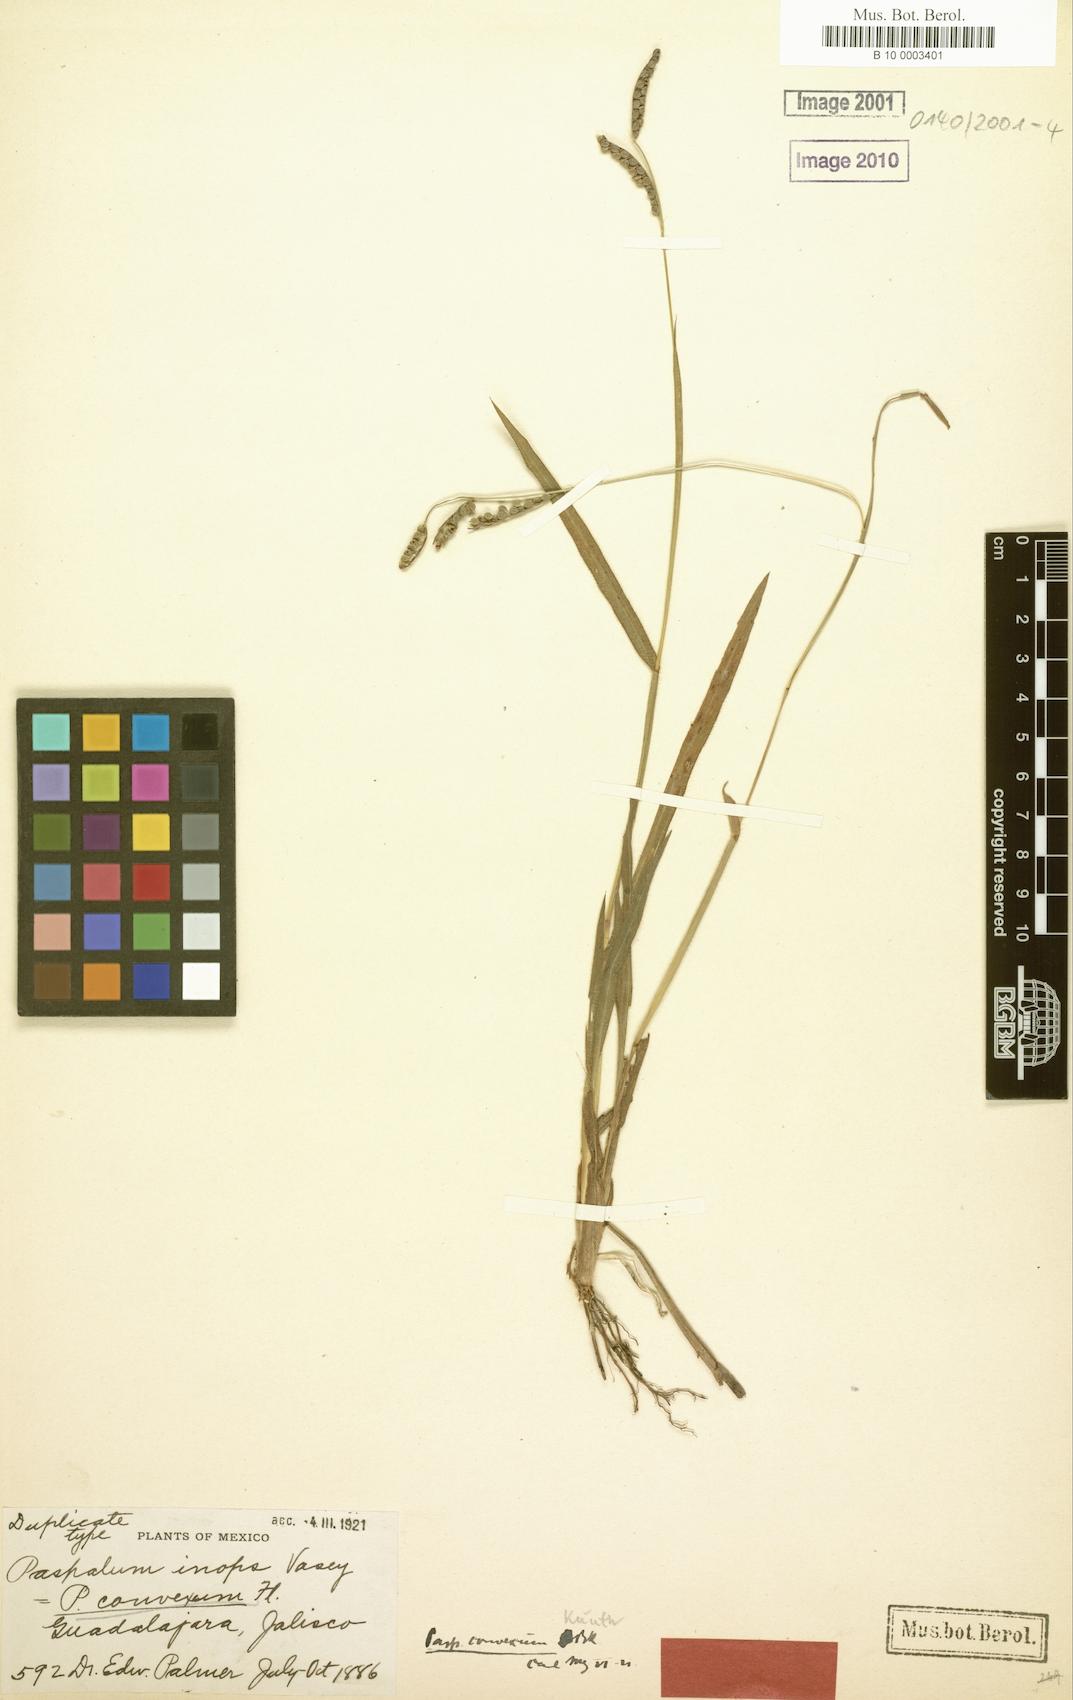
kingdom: Plantae
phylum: Tracheophyta
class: Liliopsida
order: Poales
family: Poaceae
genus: Paspalum
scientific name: Paspalum convexum
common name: Latin american crowngrass
